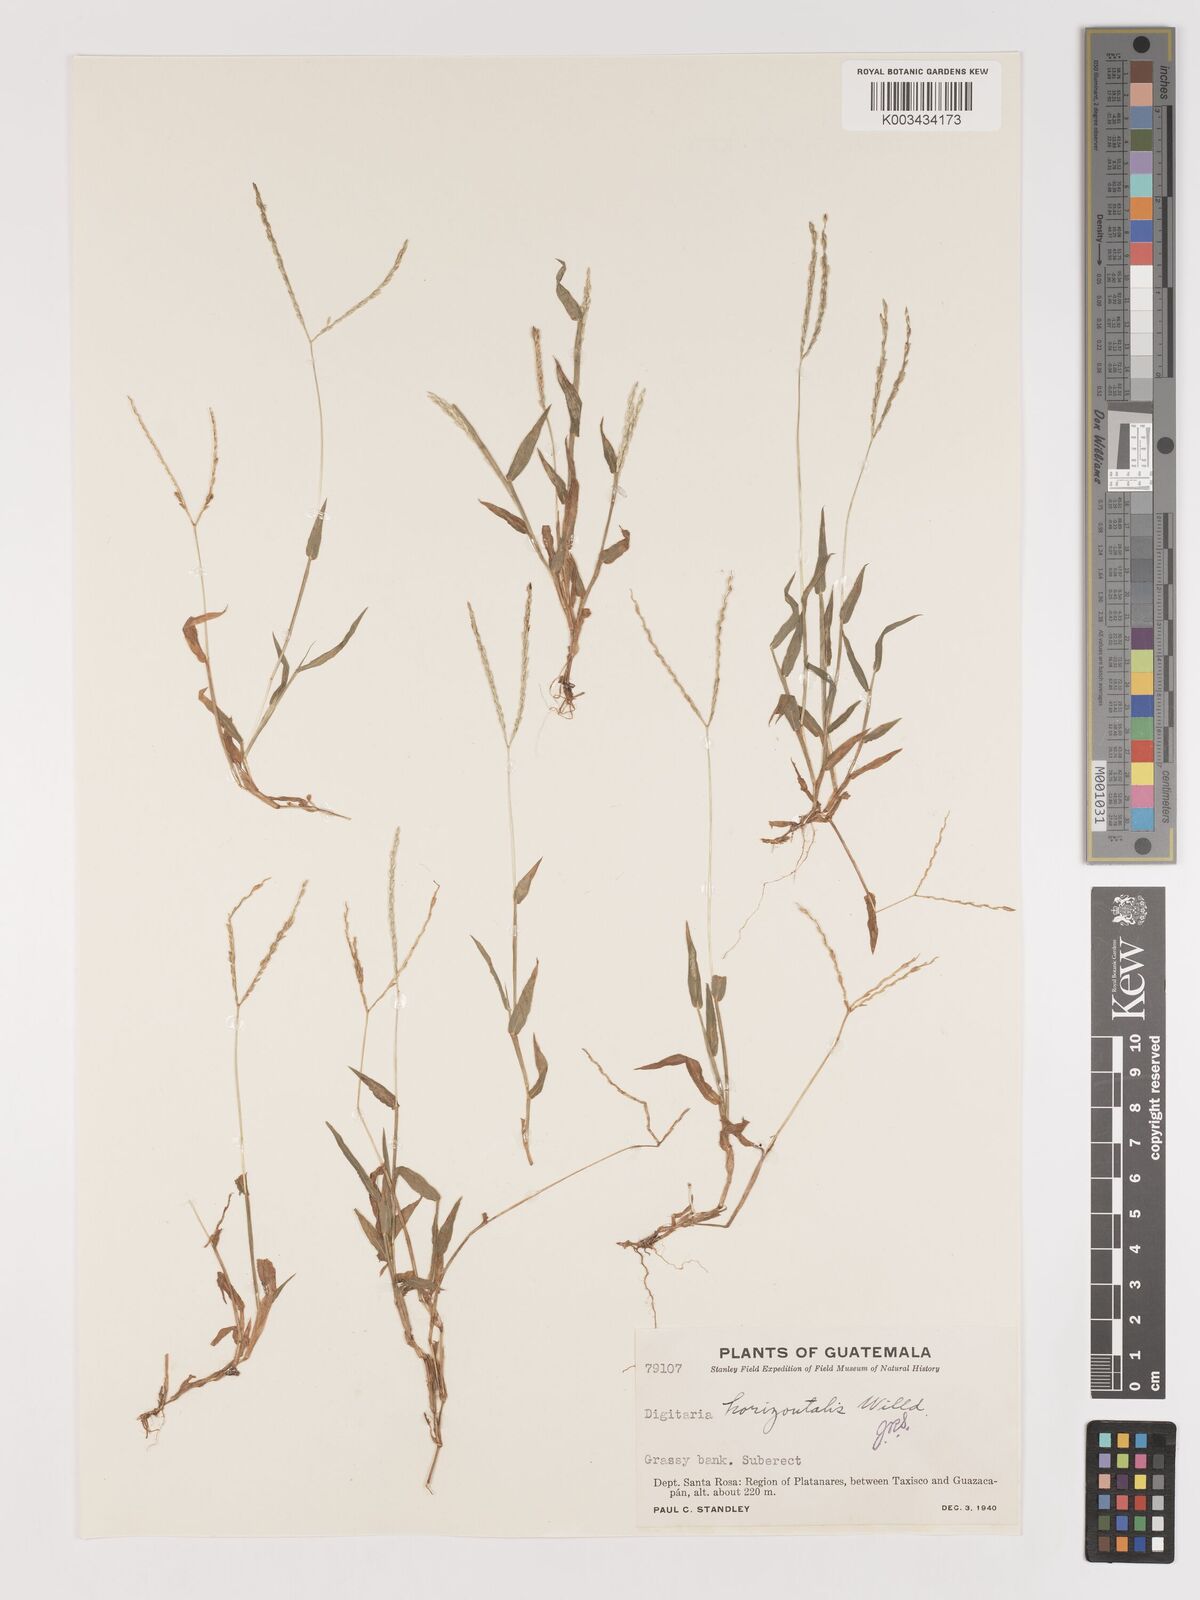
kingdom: Plantae
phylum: Tracheophyta
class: Liliopsida
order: Poales
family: Poaceae
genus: Digitaria
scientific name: Digitaria nuda
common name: Naked crabgrass
